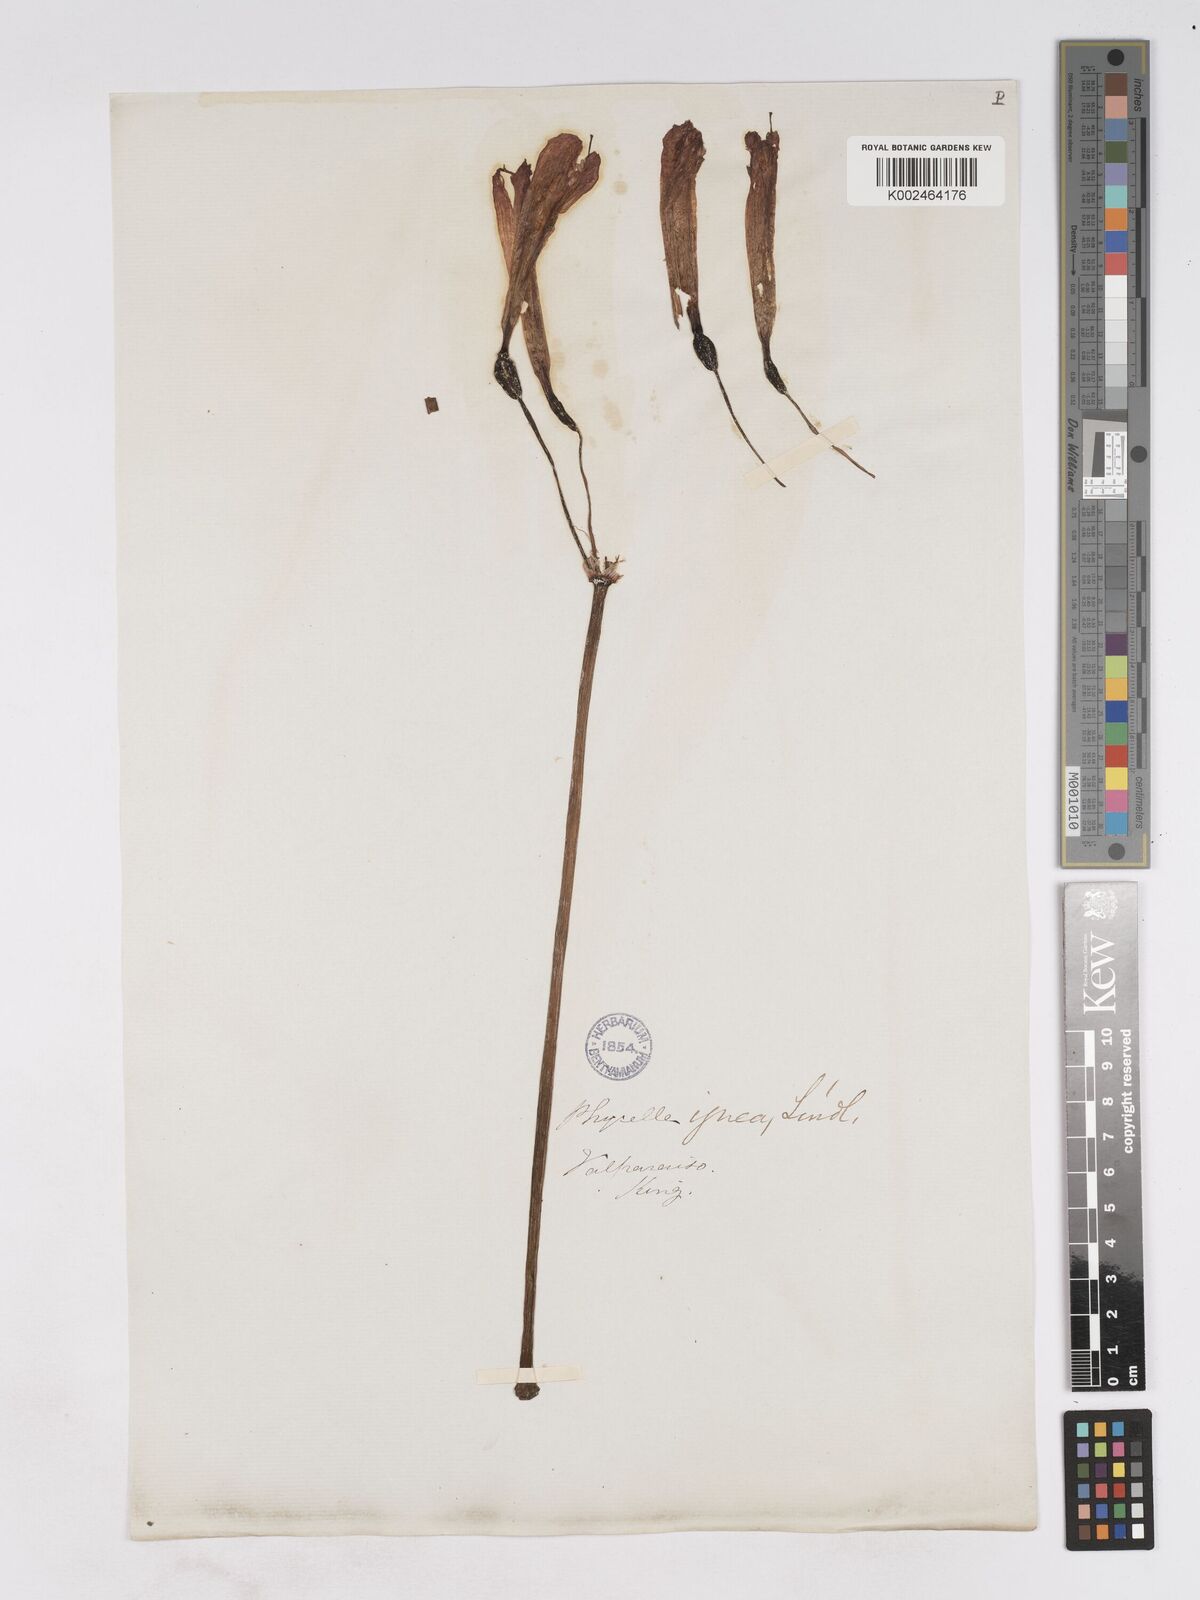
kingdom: Plantae
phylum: Tracheophyta
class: Liliopsida
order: Asparagales
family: Amaryllidaceae
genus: Phycella
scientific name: Phycella cyrtanthoides
